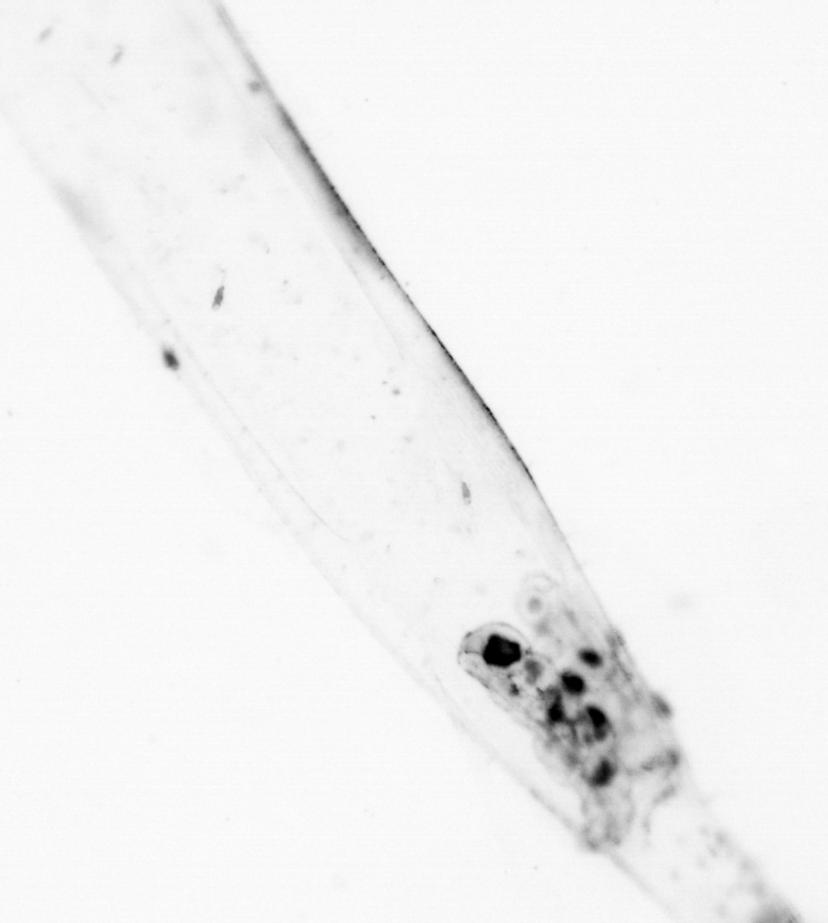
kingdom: Animalia
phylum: Chaetognatha
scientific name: Chaetognatha
